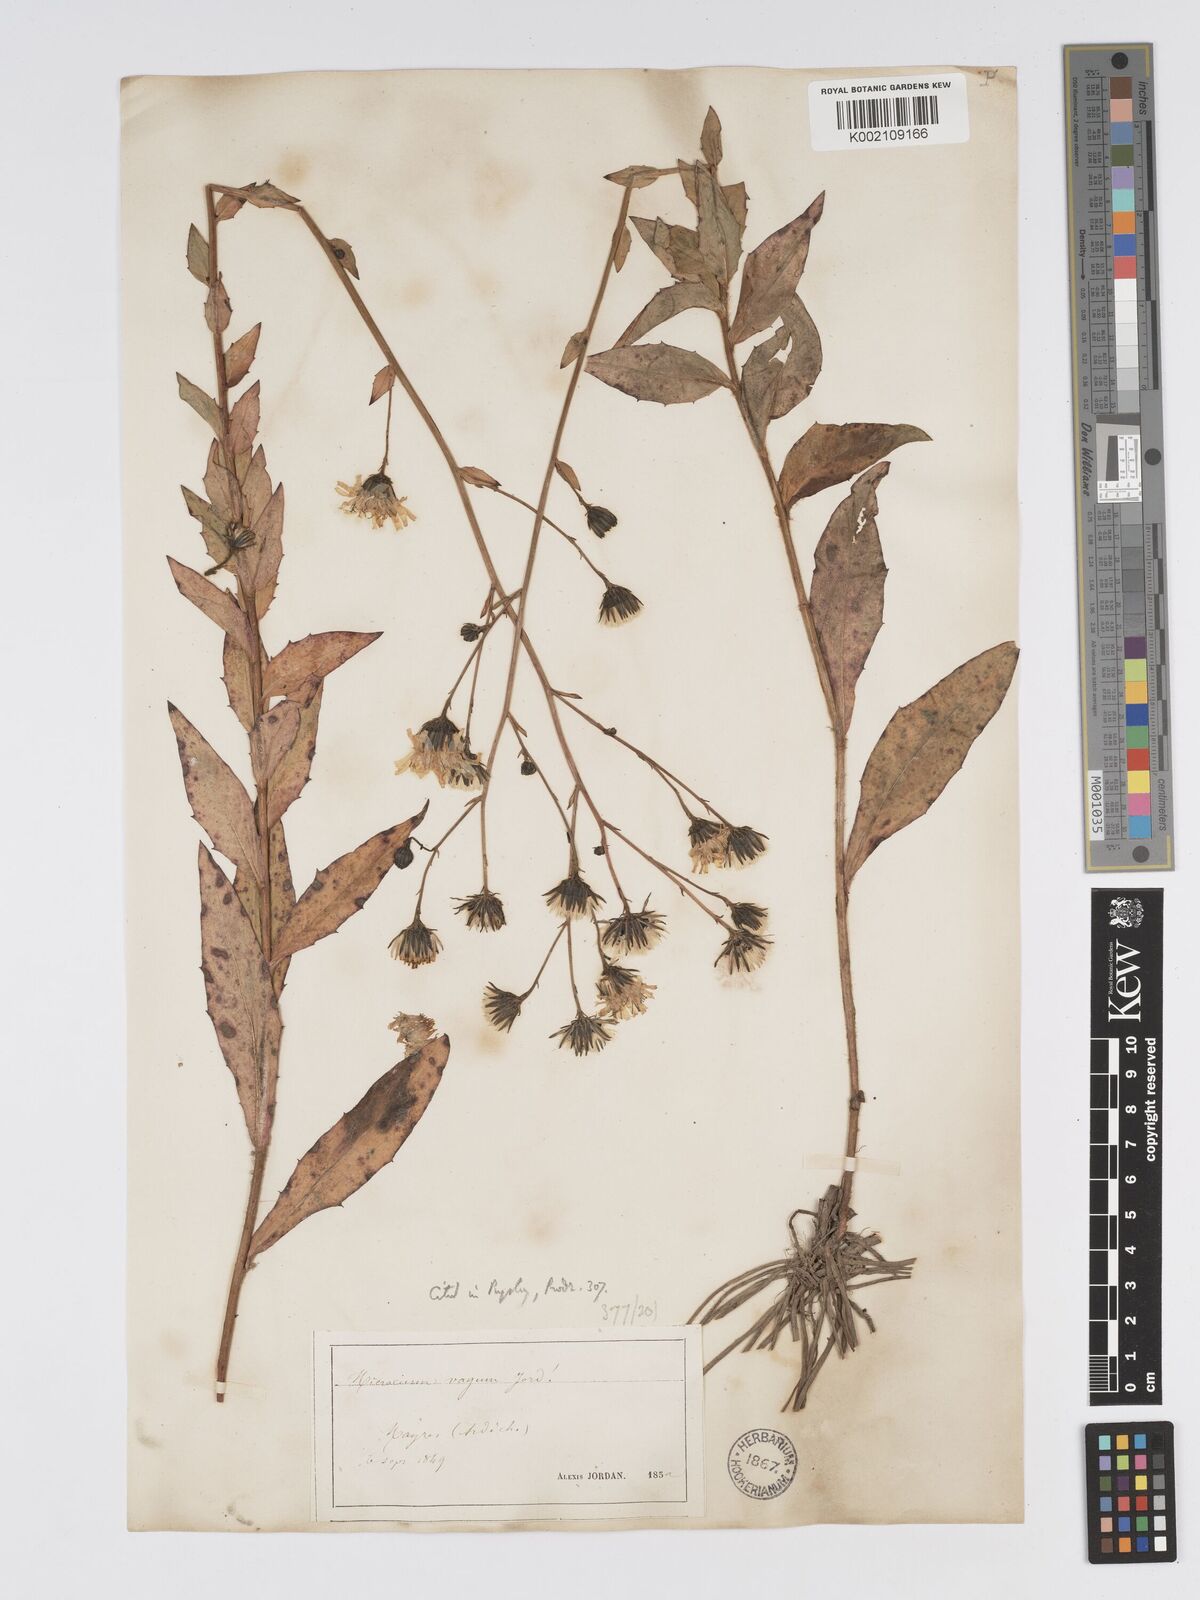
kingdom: Plantae
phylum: Tracheophyta
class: Magnoliopsida
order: Asterales
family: Asteraceae
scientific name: Asteraceae
